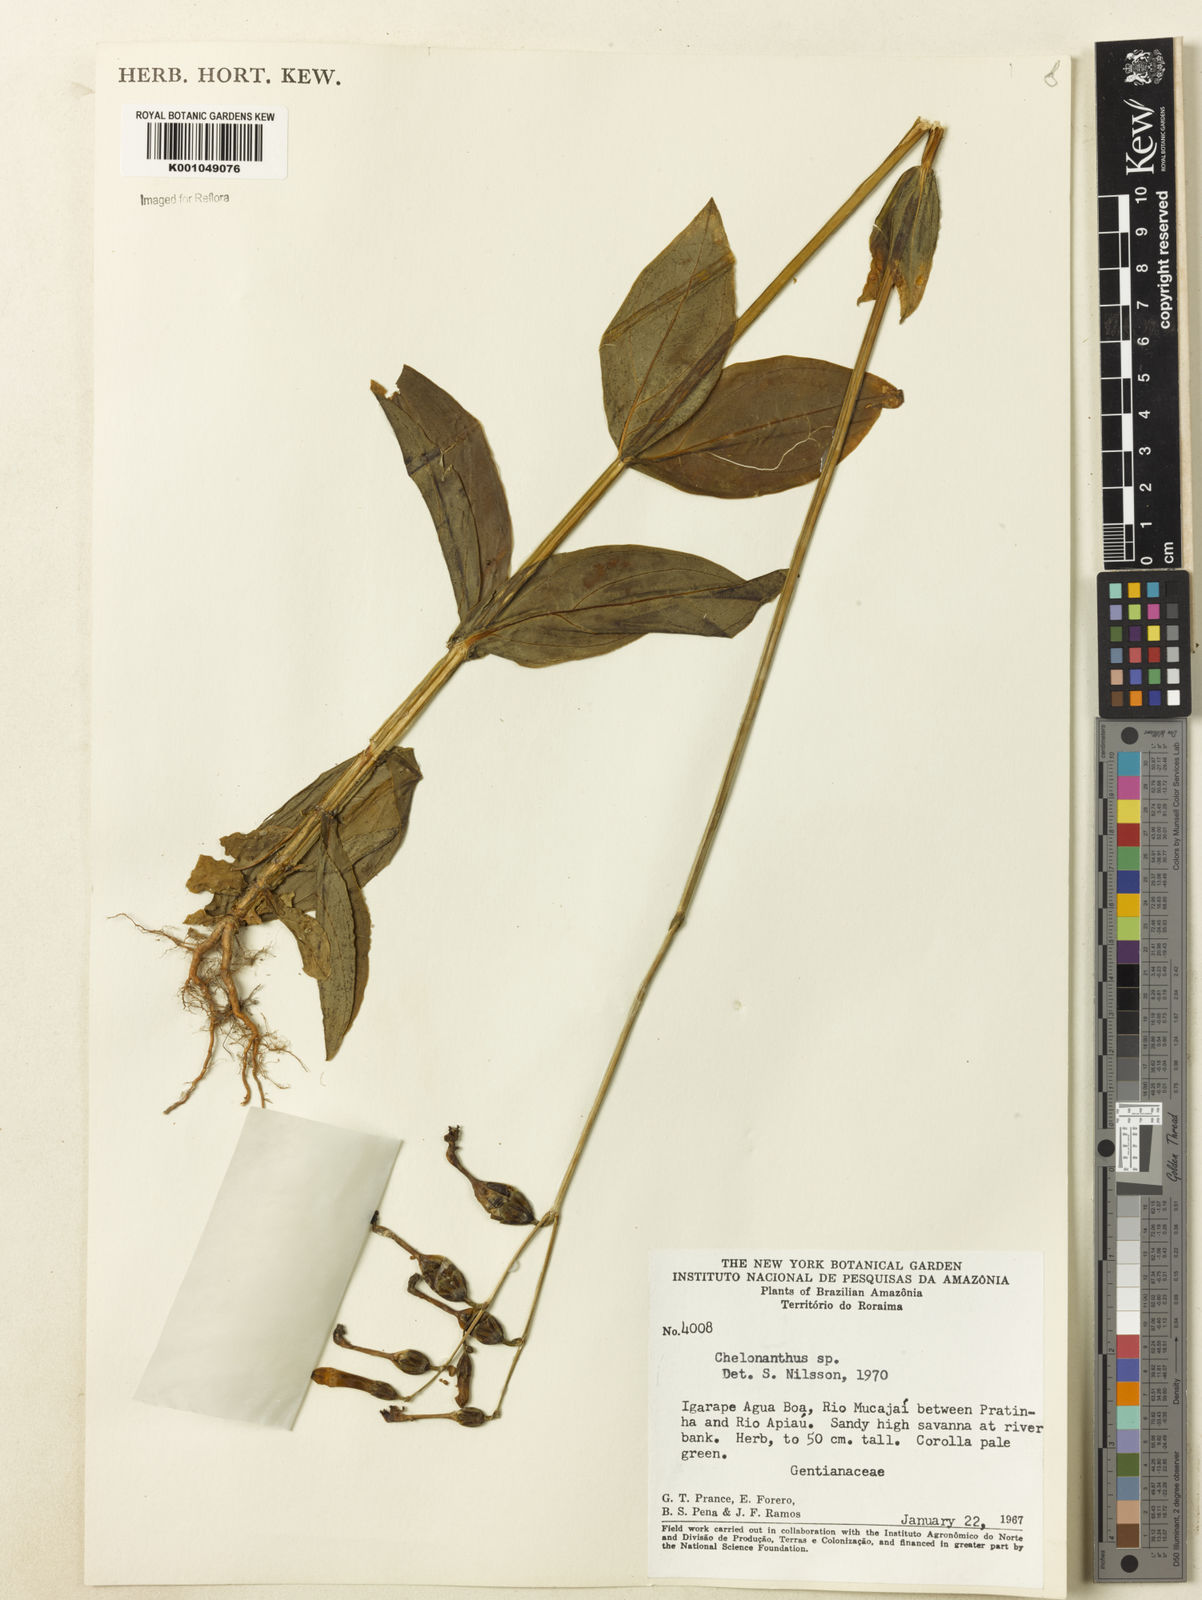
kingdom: Plantae
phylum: Tracheophyta
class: Magnoliopsida
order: Gentianales
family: Gentianaceae
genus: Chelonanthus
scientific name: Chelonanthus
